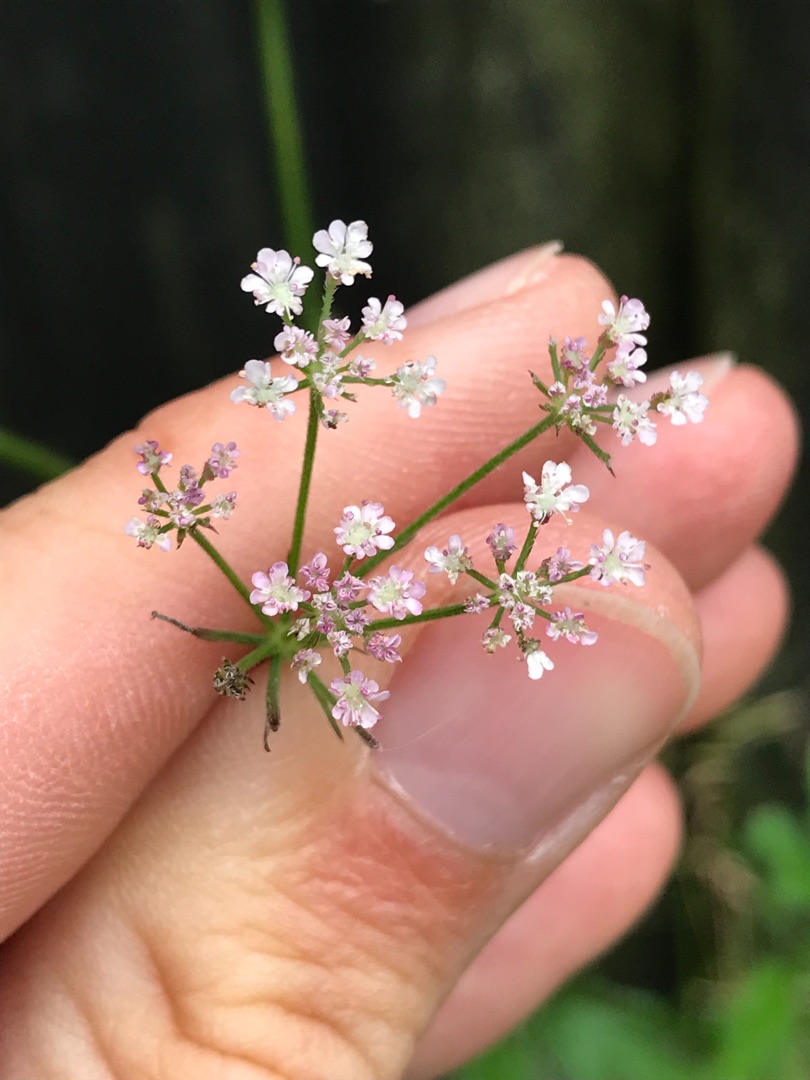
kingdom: Plantae
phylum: Tracheophyta
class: Magnoliopsida
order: Apiales
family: Apiaceae
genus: Torilis
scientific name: Torilis japonica
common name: Hvas randfrø
